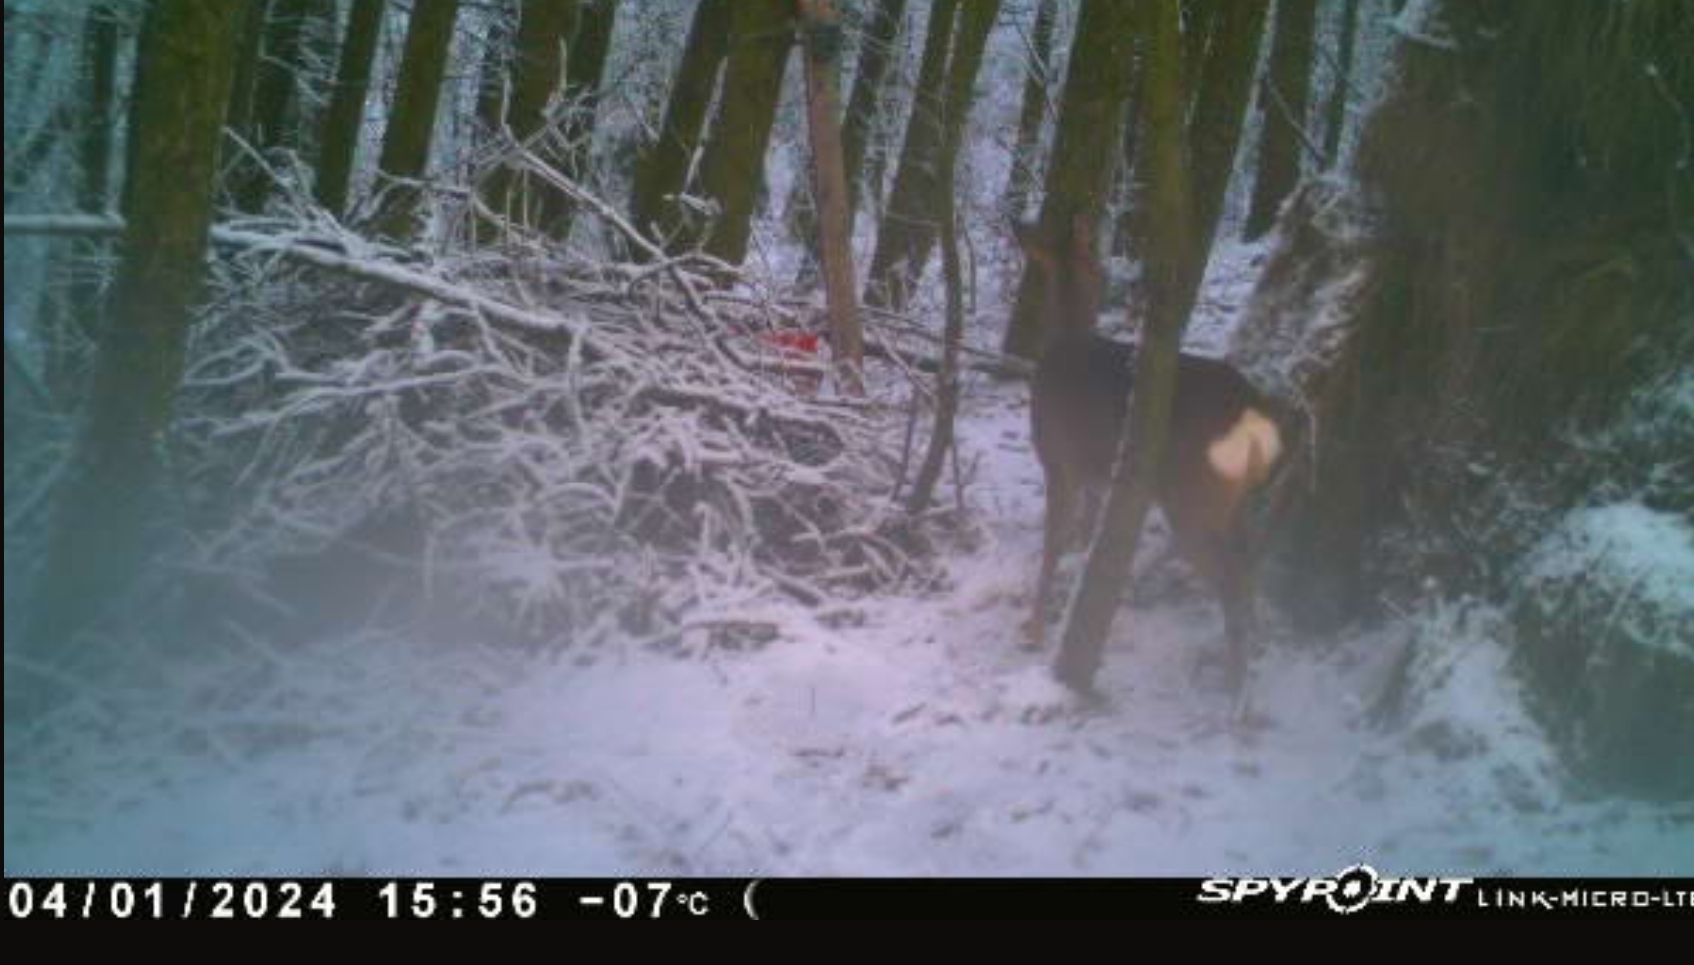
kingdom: Animalia
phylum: Chordata
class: Mammalia
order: Artiodactyla
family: Cervidae
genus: Capreolus
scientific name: Capreolus capreolus
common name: Rådyr
